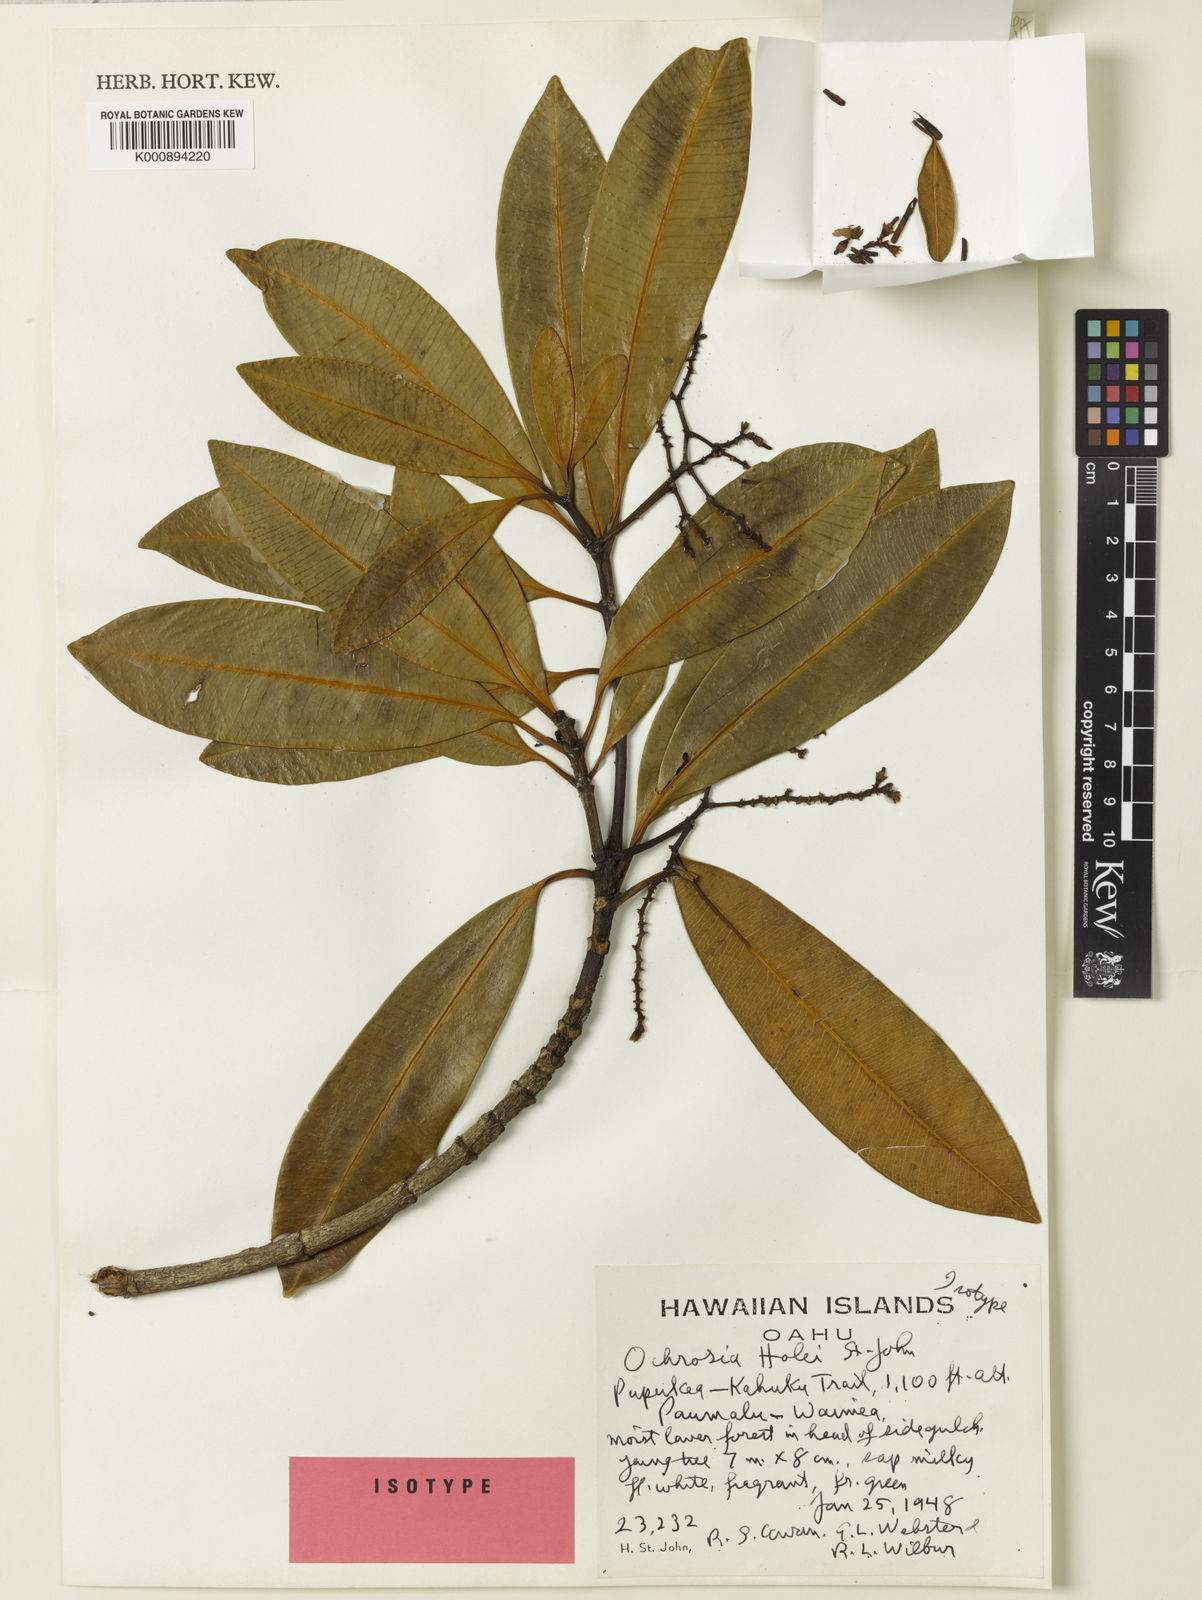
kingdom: Plantae
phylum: Tracheophyta
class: Magnoliopsida
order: Gentianales
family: Apocynaceae
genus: Ochrosia
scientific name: Ochrosia compta
